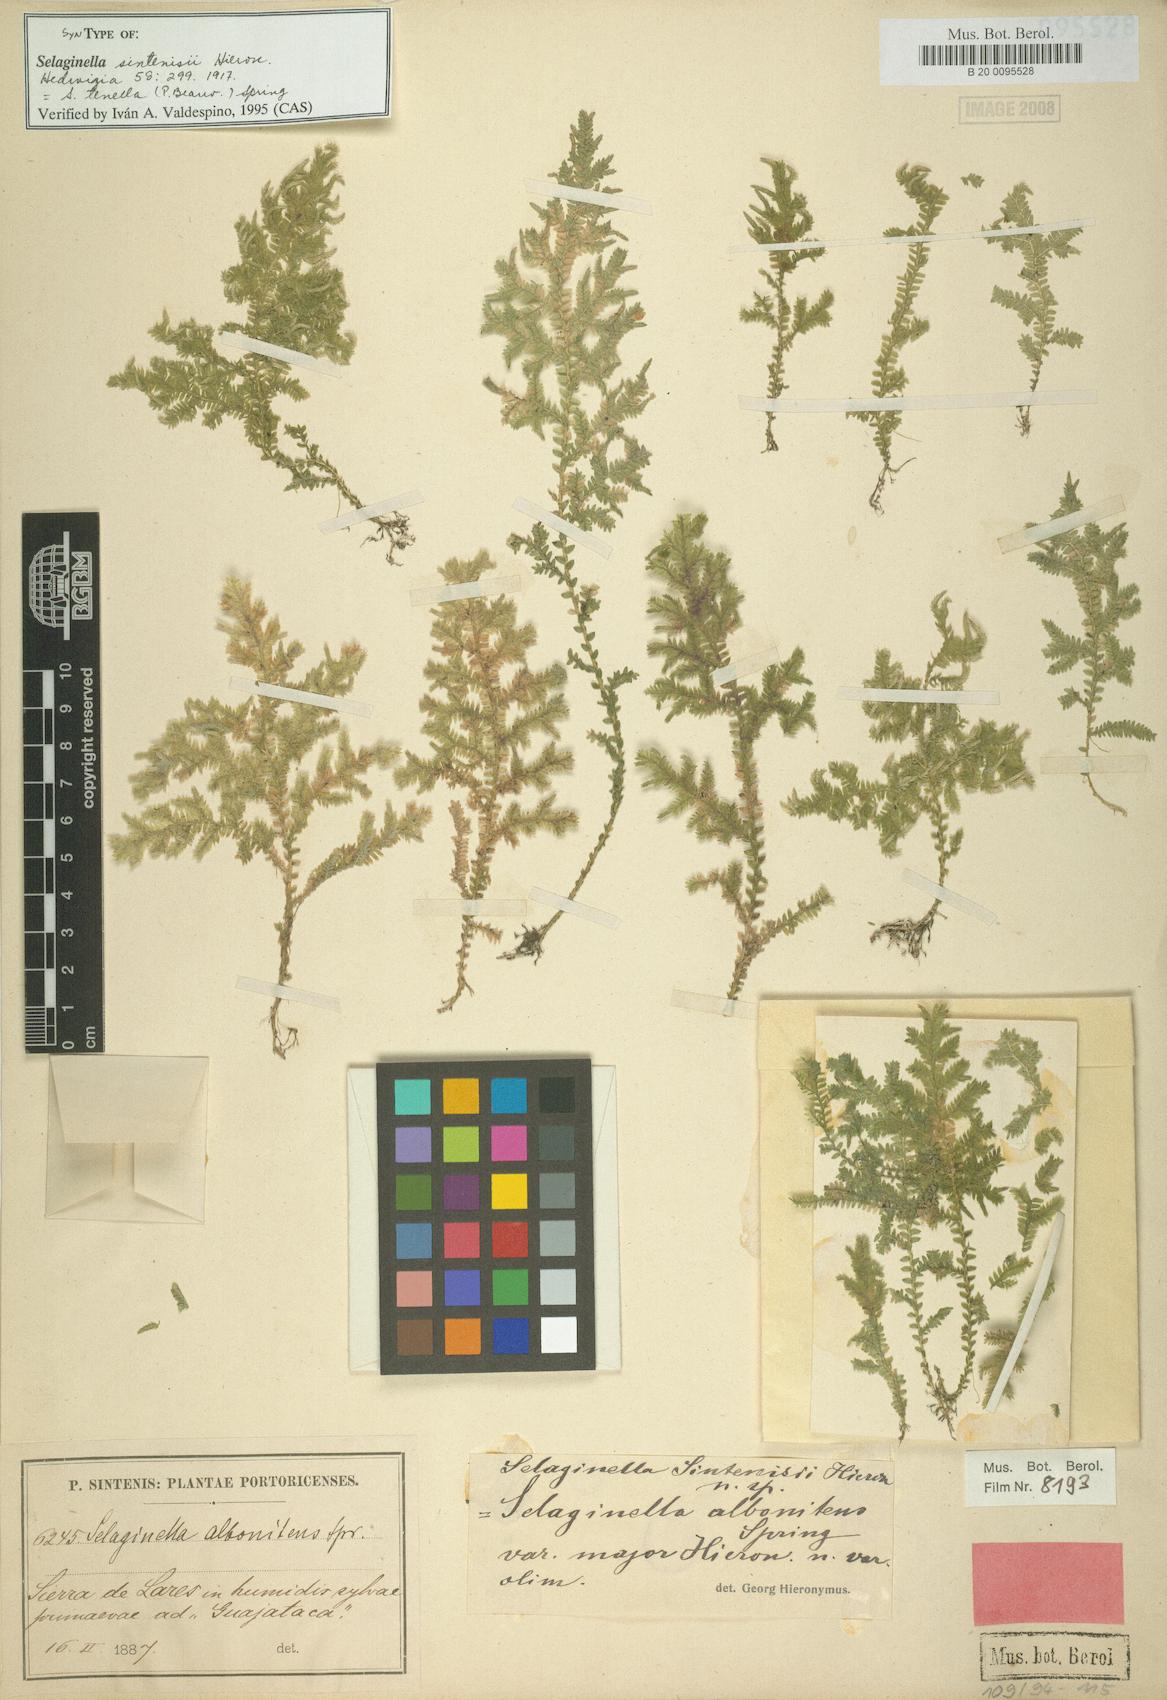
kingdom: Plantae
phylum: Tracheophyta
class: Lycopodiopsida
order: Selaginellales
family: Selaginellaceae
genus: Selaginella
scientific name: Selaginella tenella
